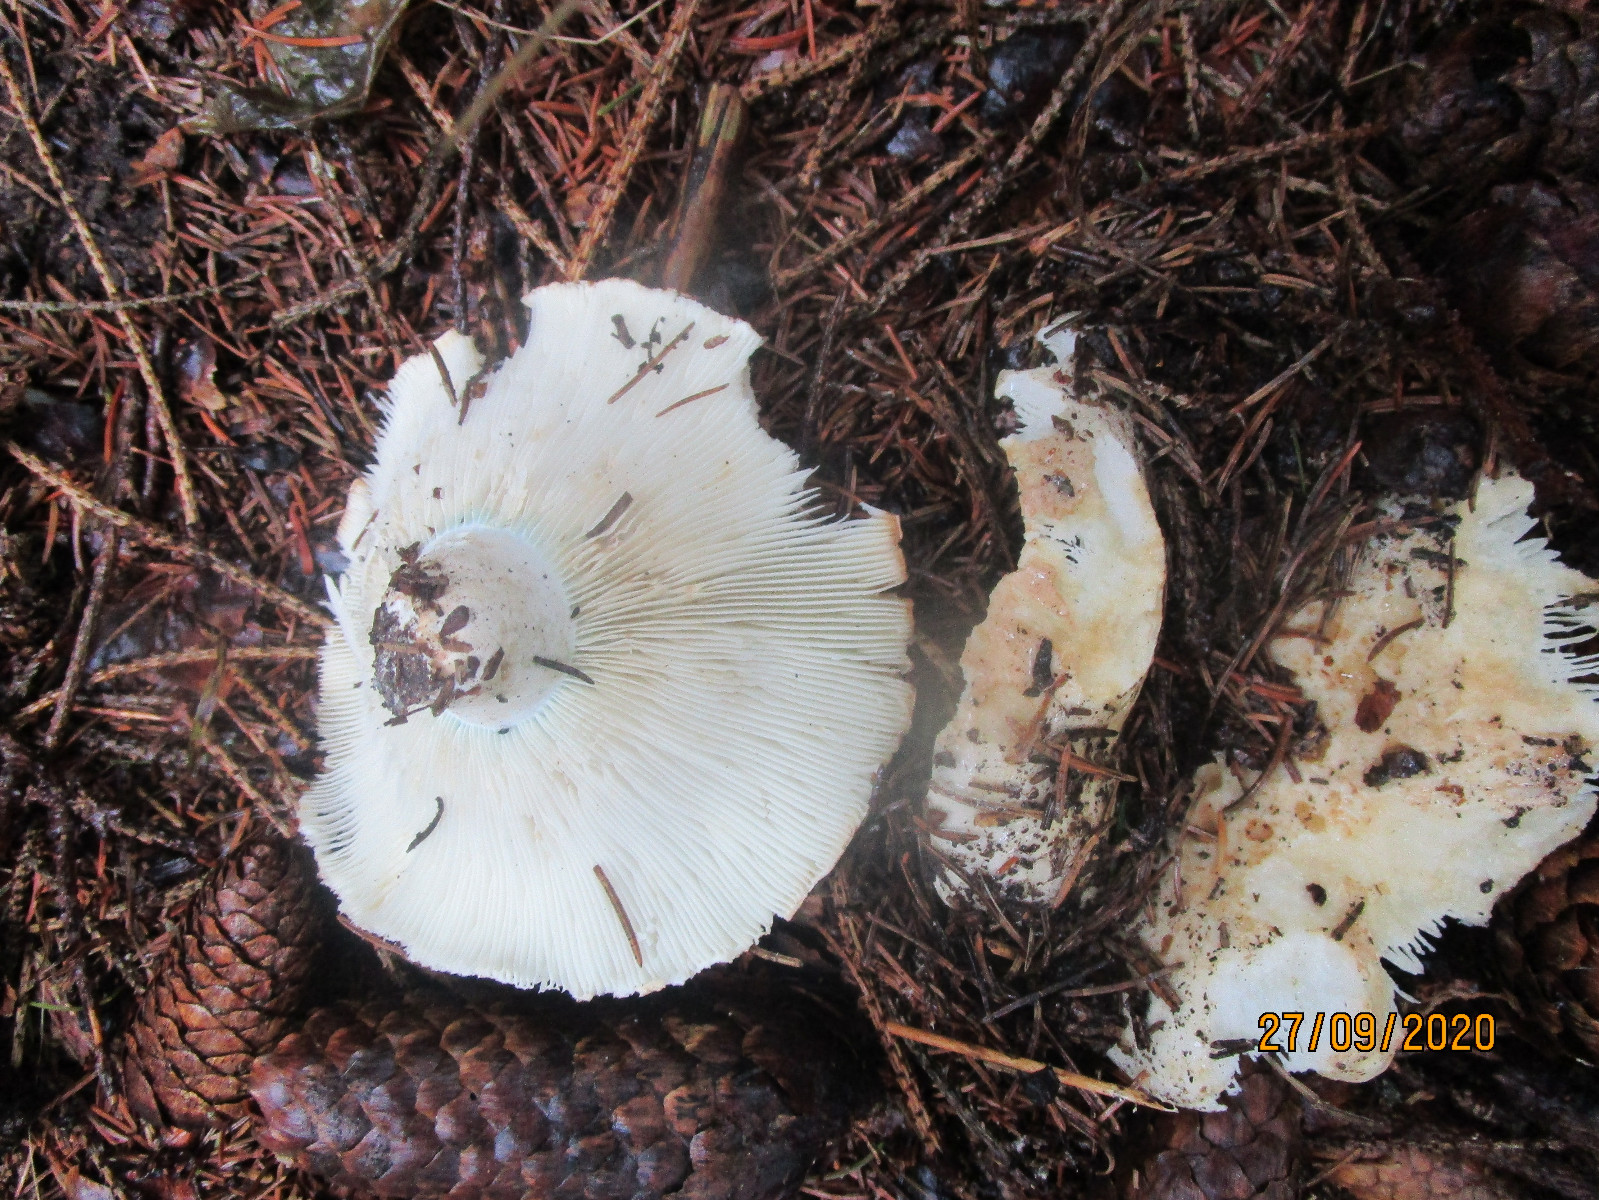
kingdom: Fungi
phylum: Basidiomycota
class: Agaricomycetes
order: Russulales
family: Russulaceae
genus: Russula
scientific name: Russula chloroides
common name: grønhalset tragt-skørhat
